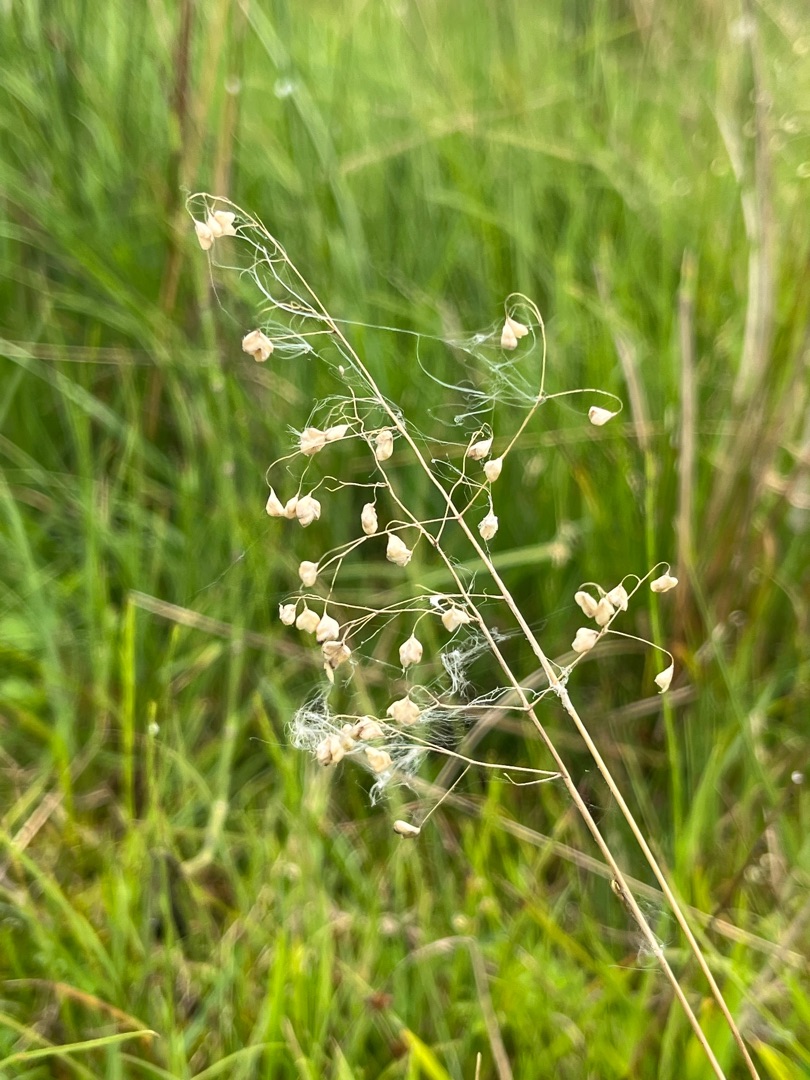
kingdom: Plantae
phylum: Tracheophyta
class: Liliopsida
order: Poales
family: Poaceae
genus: Briza
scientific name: Briza media
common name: Hjertegræs
